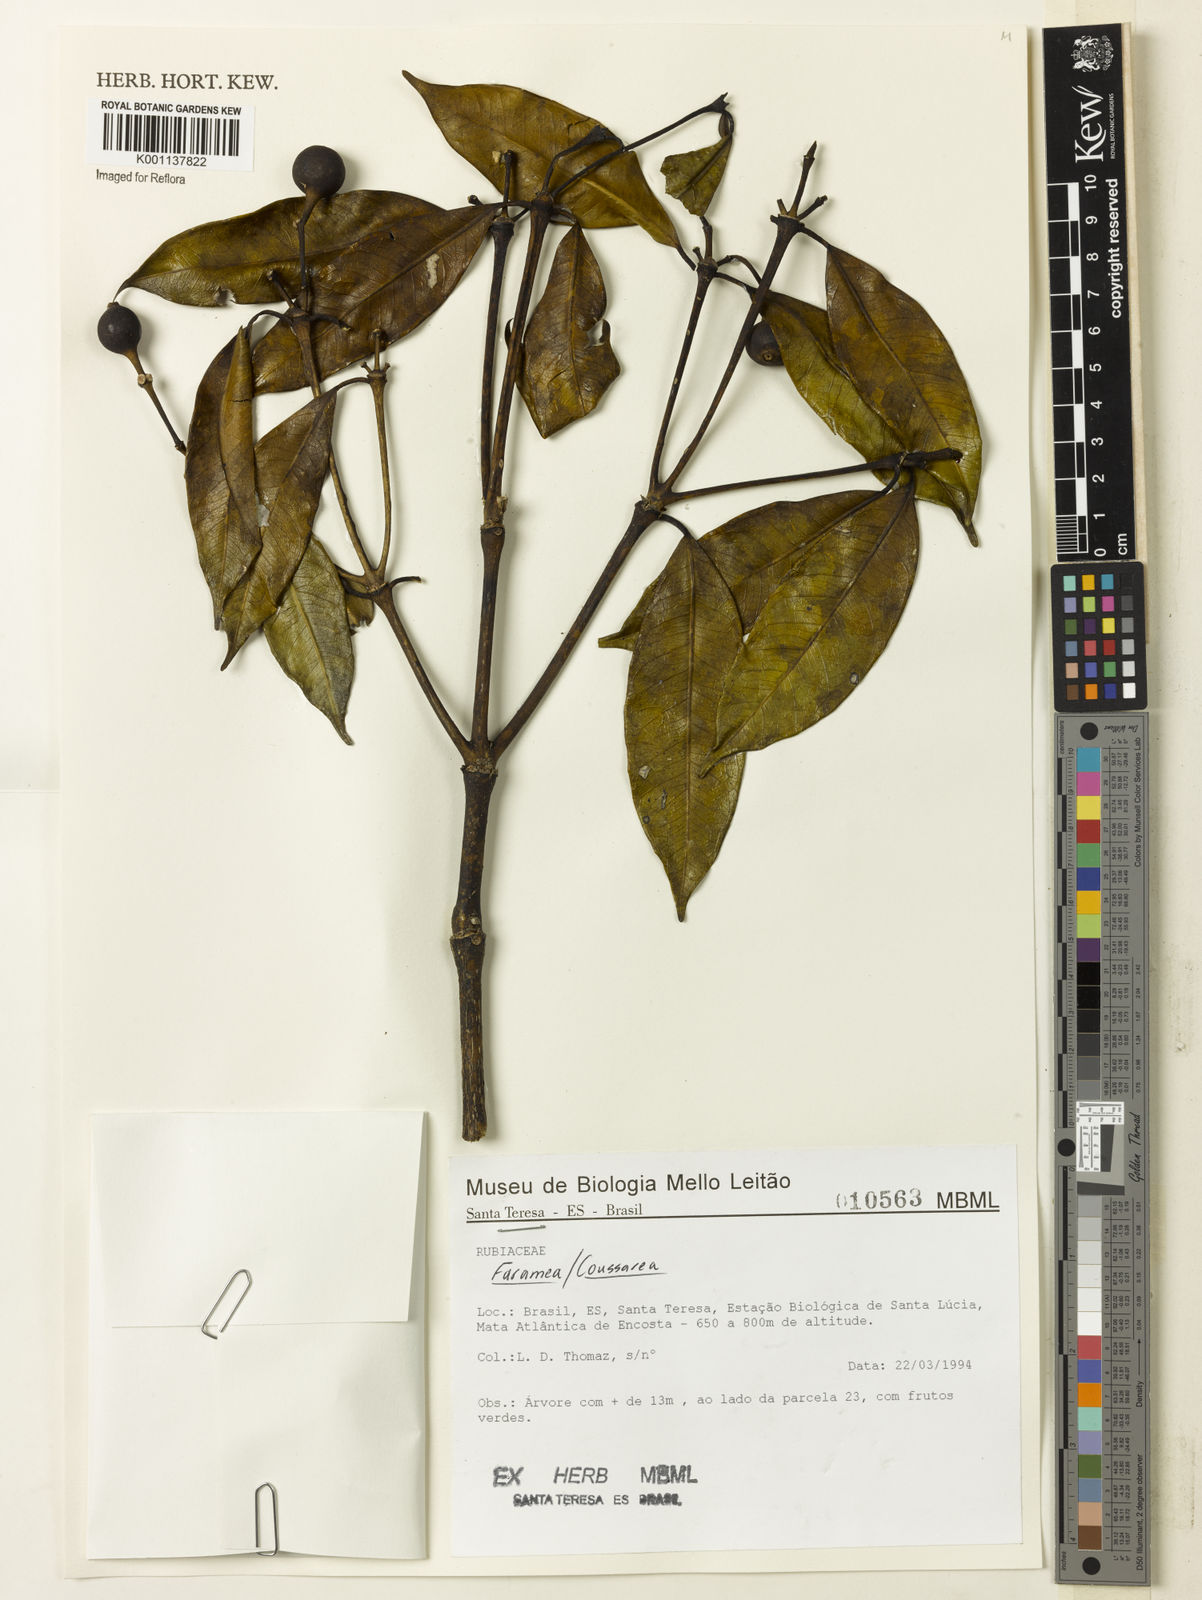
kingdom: Plantae
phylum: Tracheophyta
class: Magnoliopsida
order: Gentianales
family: Rubiaceae
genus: Coussarea
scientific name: Coussarea
